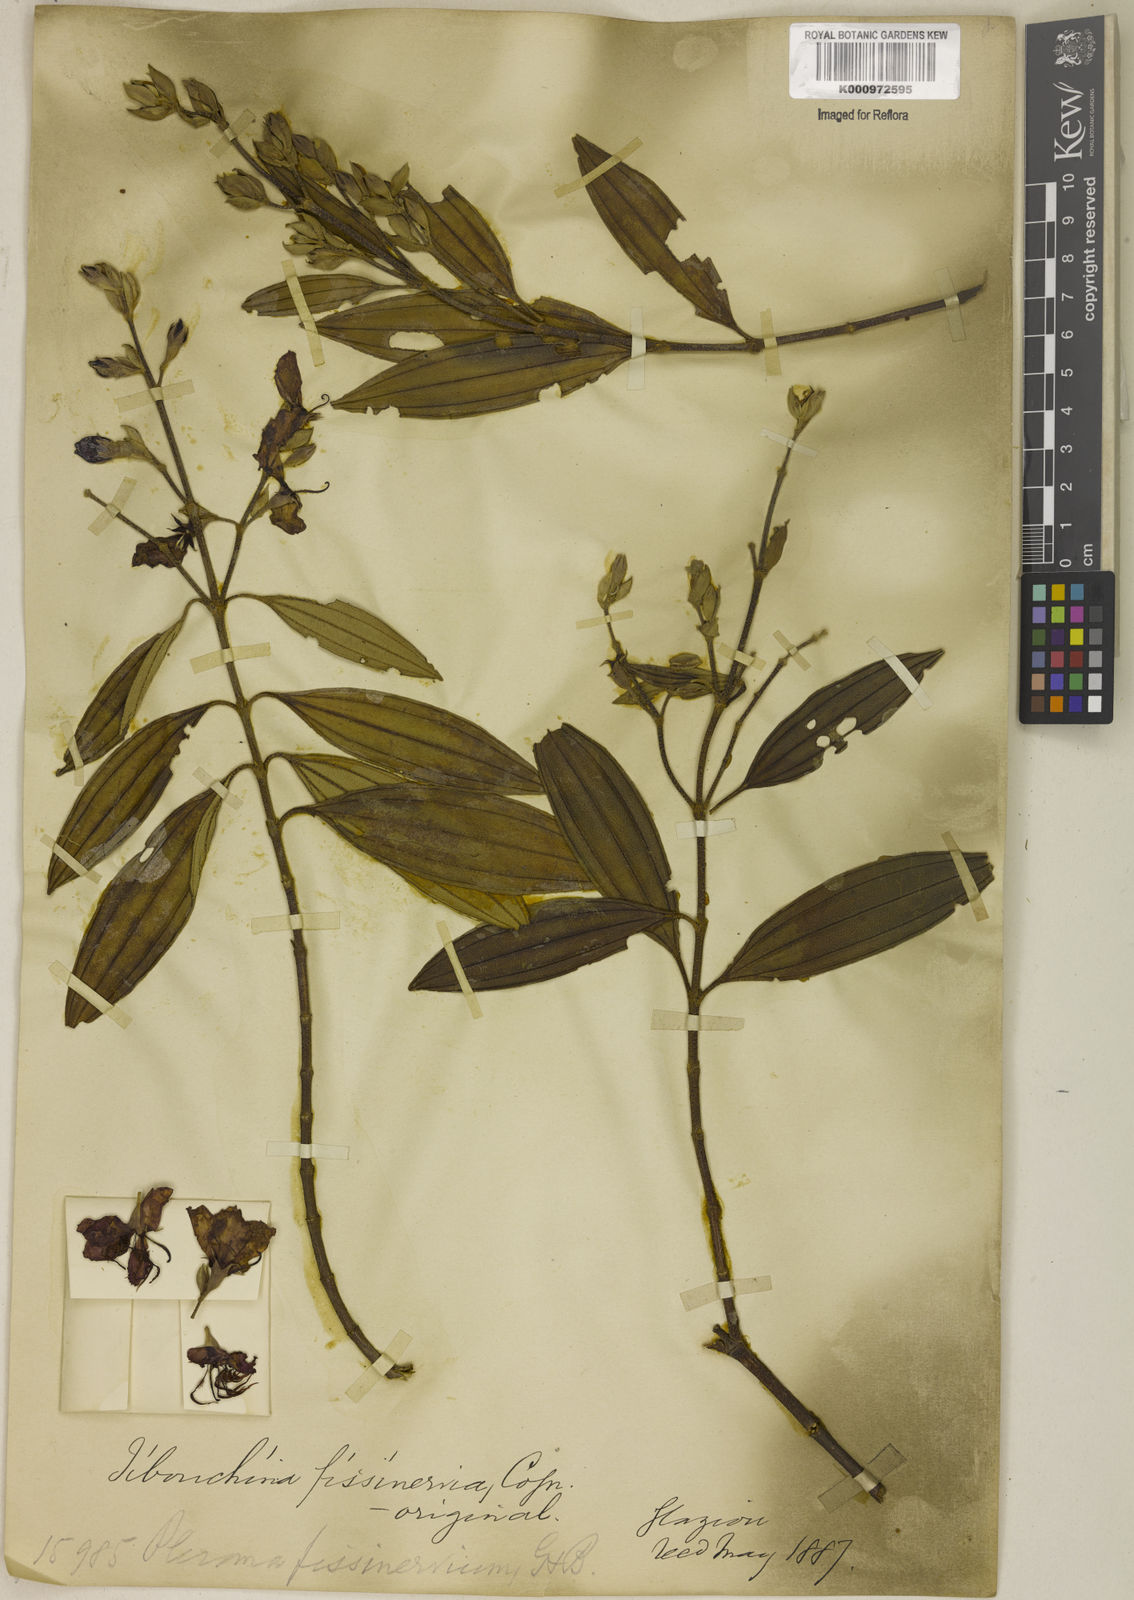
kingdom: Plantae
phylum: Tracheophyta
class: Magnoliopsida
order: Myrtales
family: Melastomataceae
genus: Pleroma
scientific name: Pleroma fissinervium
